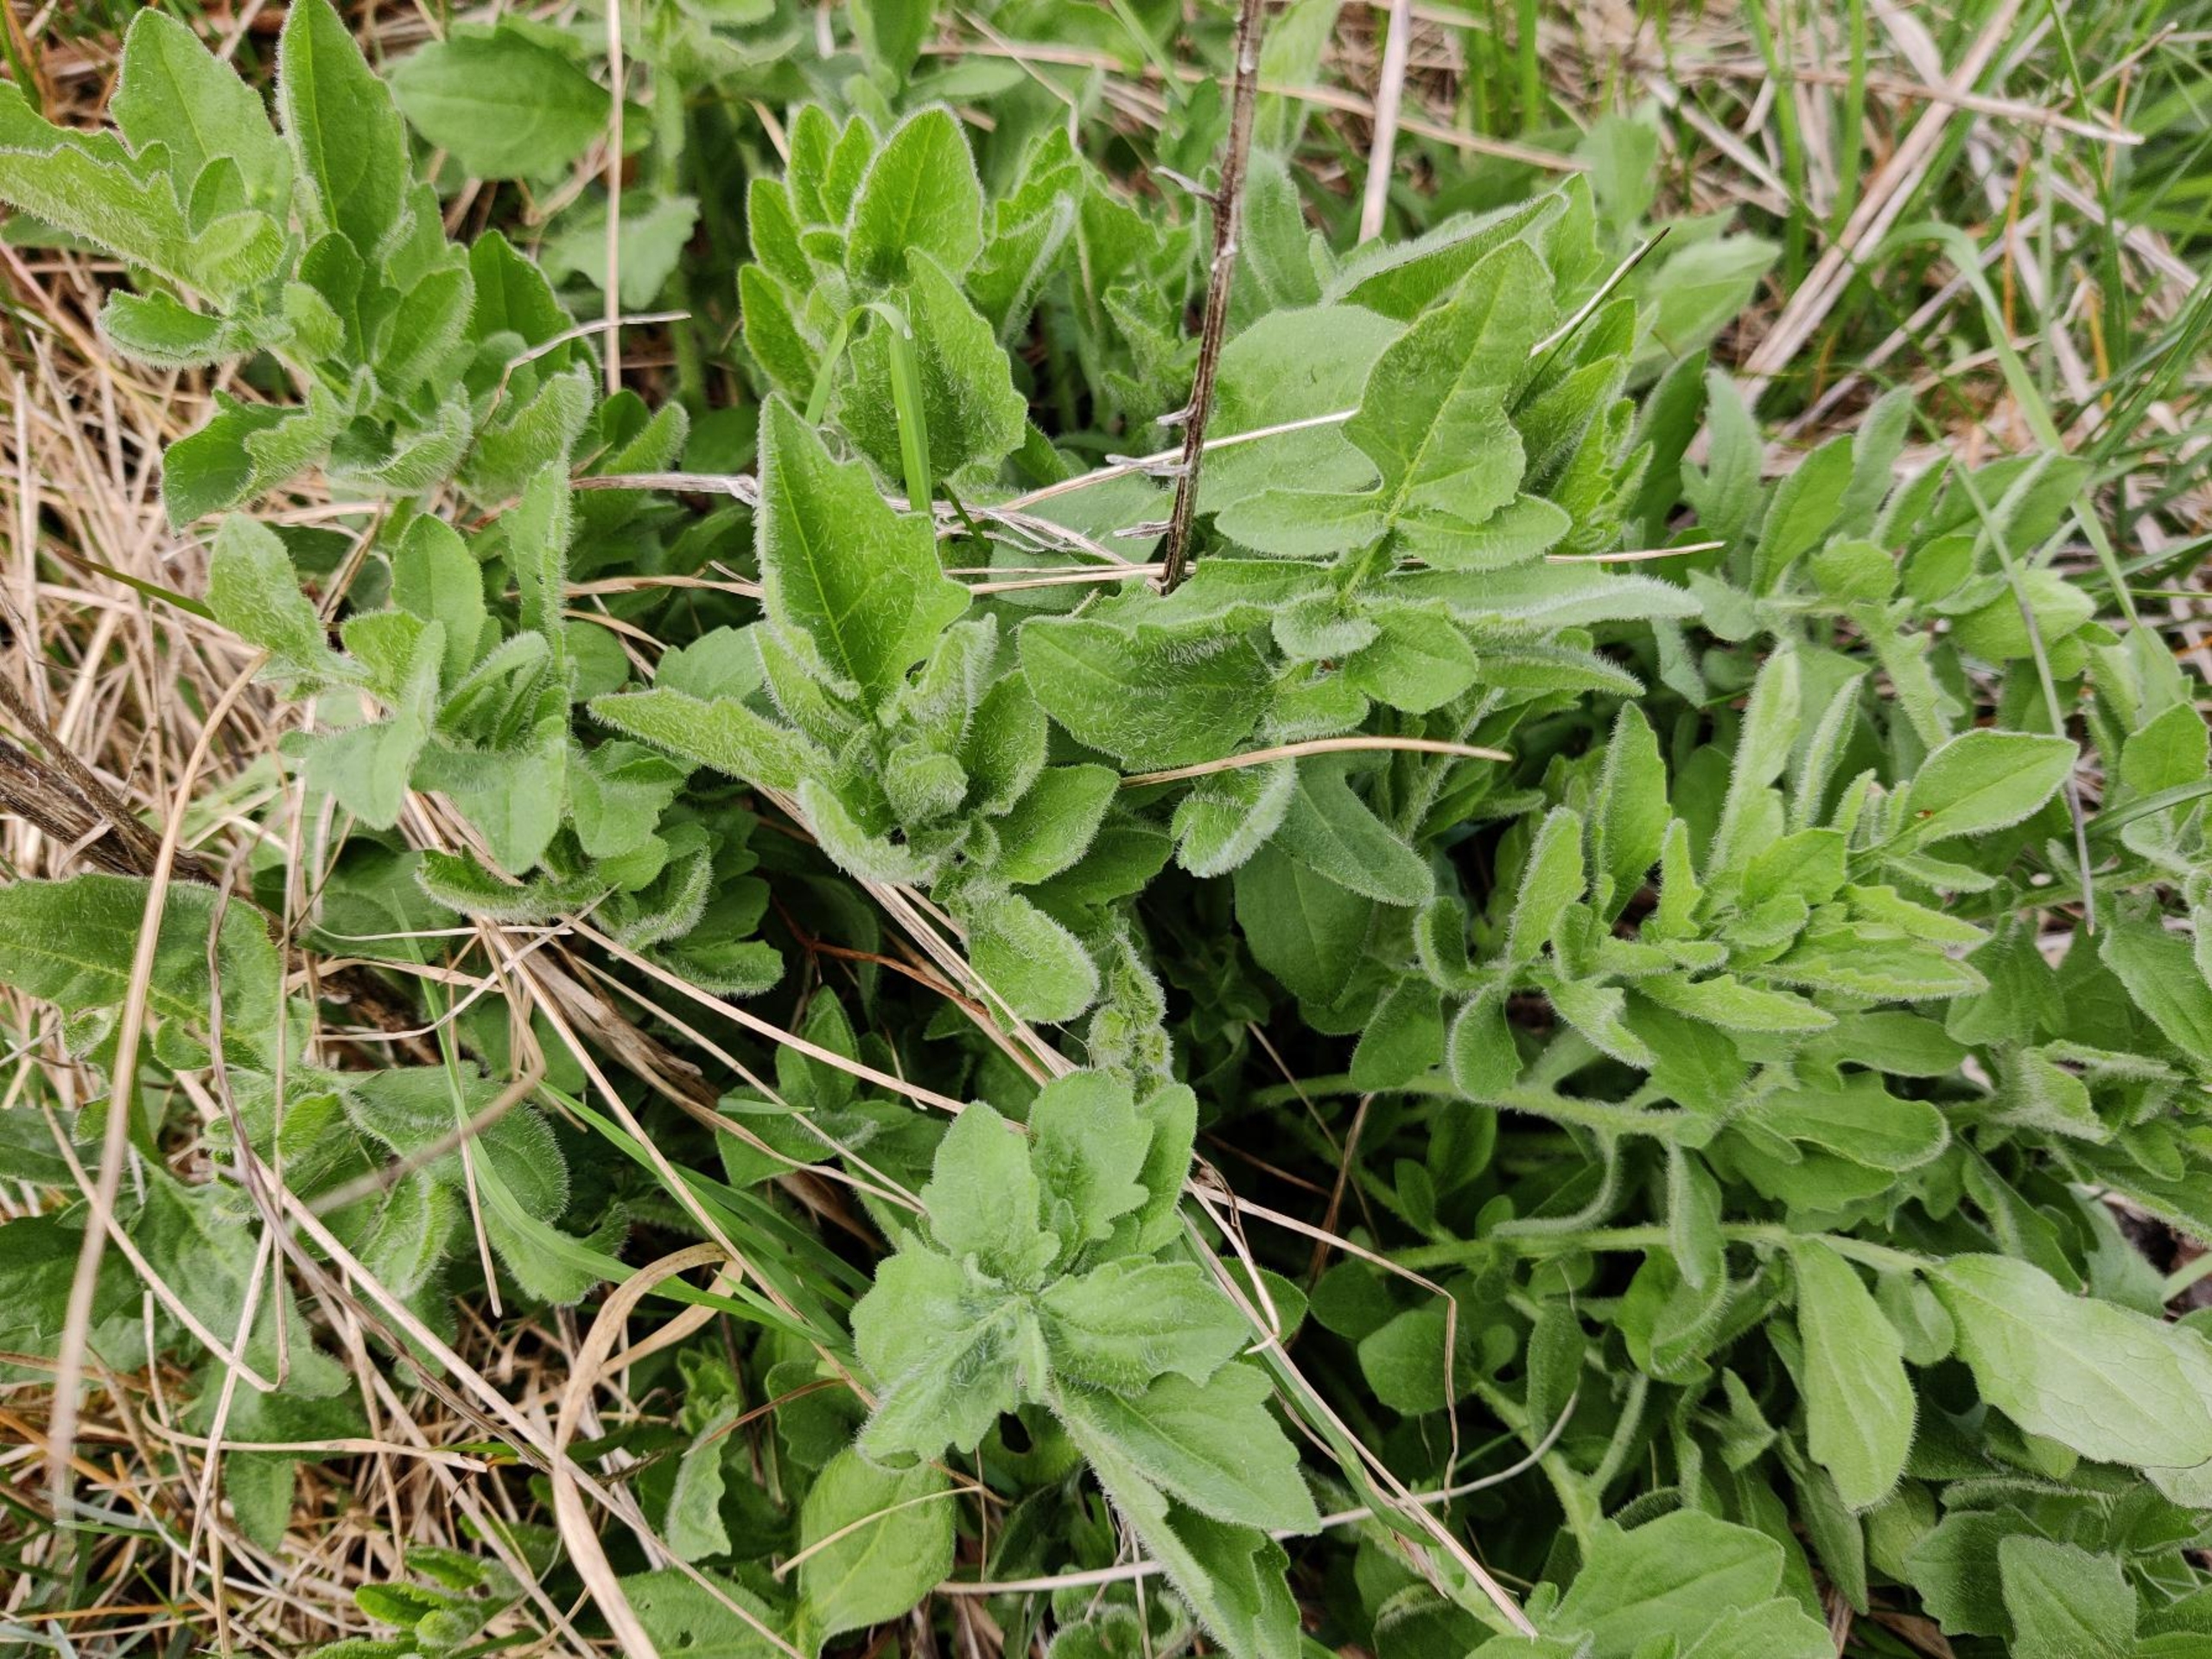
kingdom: Plantae
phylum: Tracheophyta
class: Magnoliopsida
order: Asterales
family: Asteraceae
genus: Centaurea
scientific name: Centaurea scabiosa
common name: Stor knopurt
